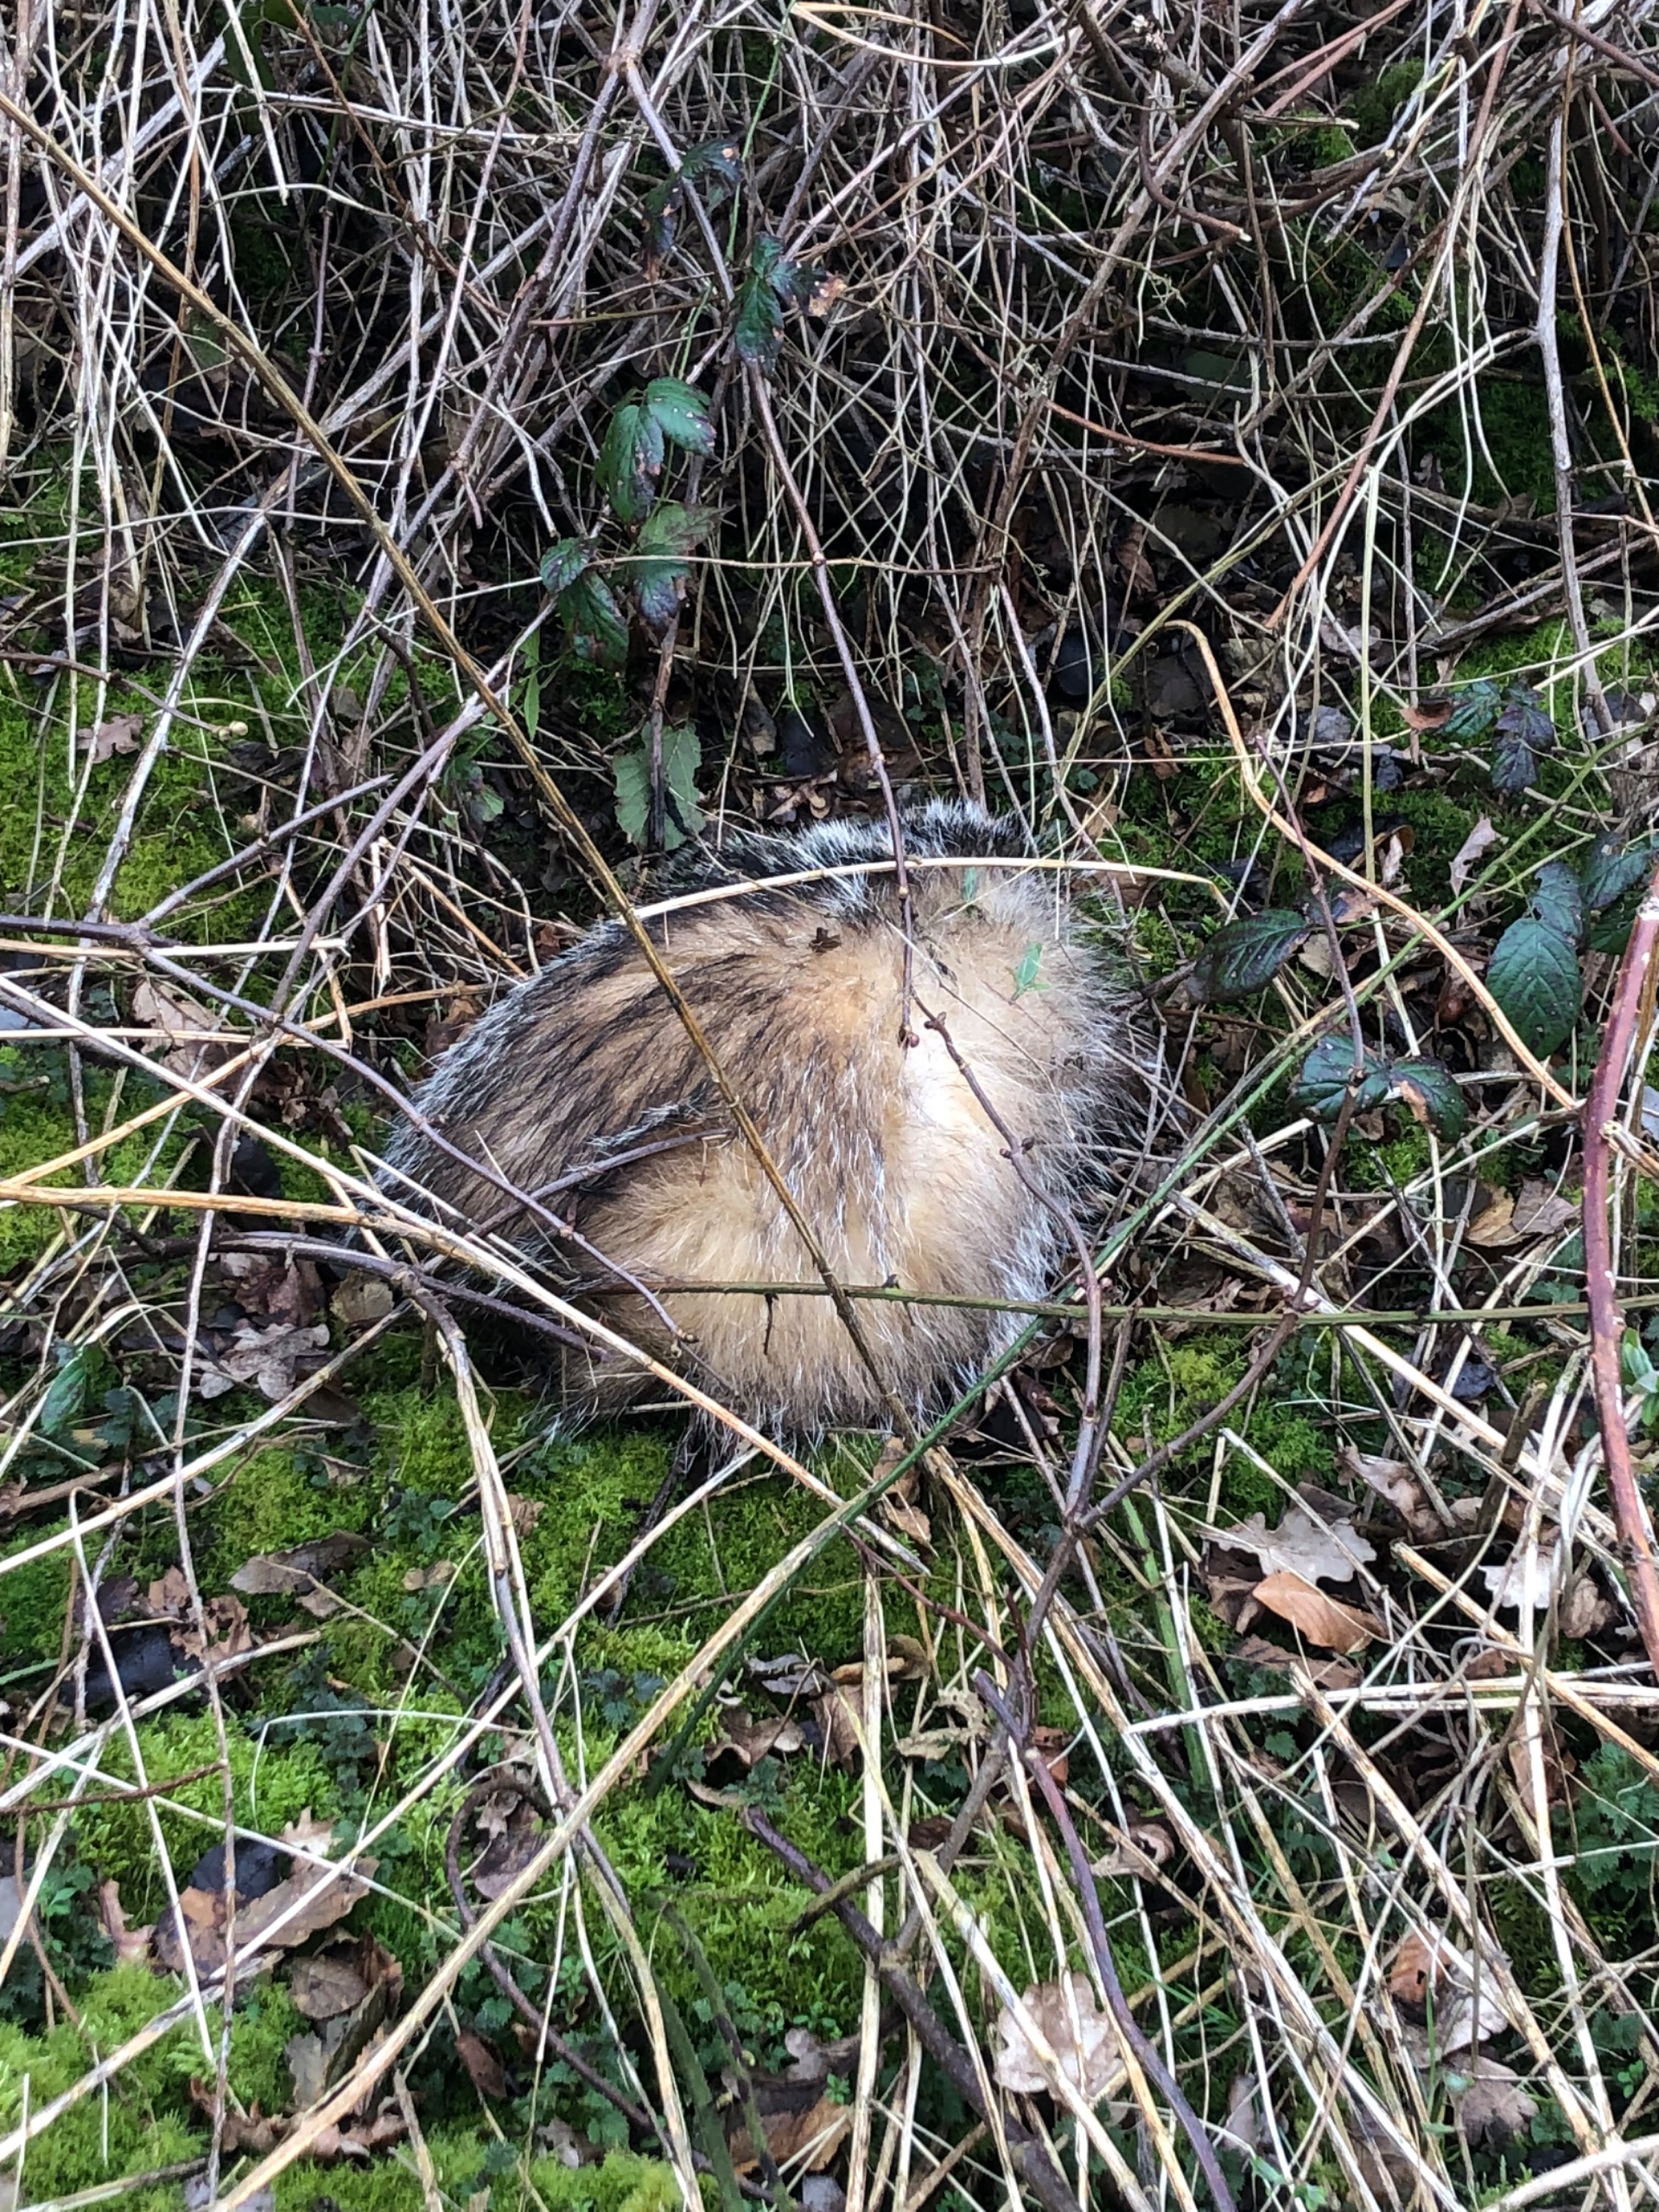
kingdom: Animalia
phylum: Chordata
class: Mammalia
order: Carnivora
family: Canidae
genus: Nyctereutes
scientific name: Nyctereutes procyonoides
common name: Mårhund
